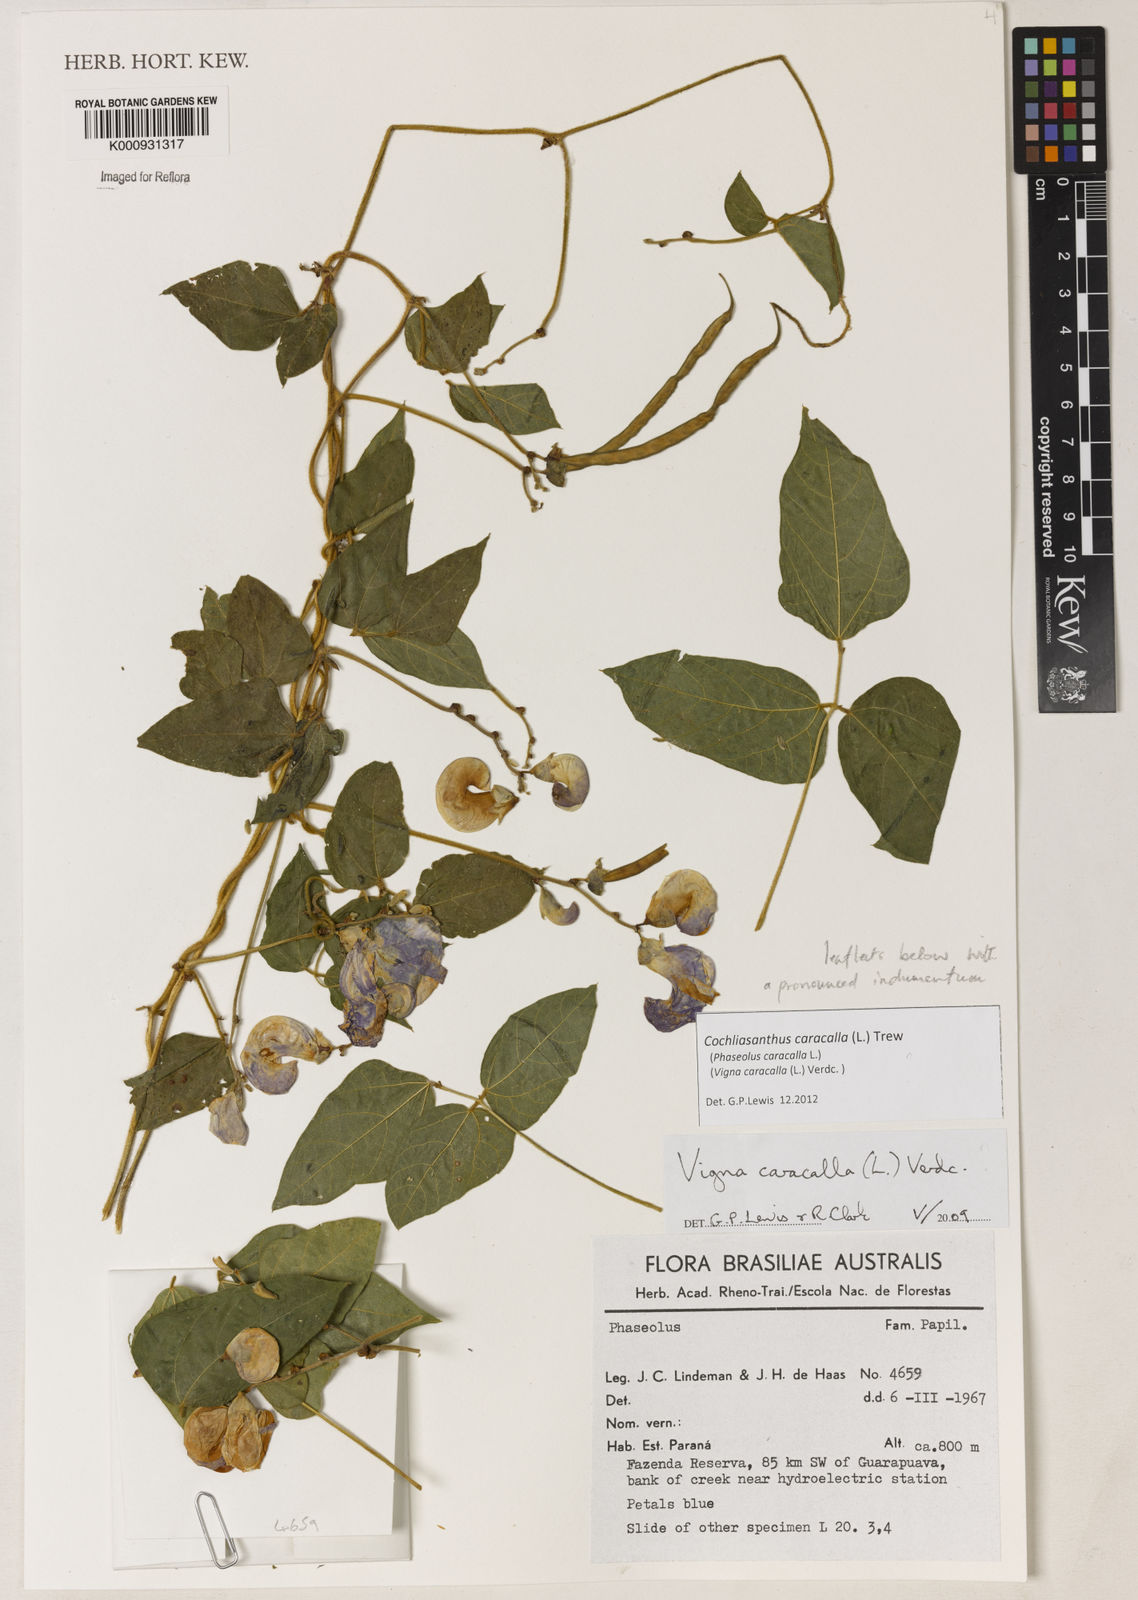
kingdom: Plantae
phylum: Tracheophyta
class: Magnoliopsida
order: Fabales
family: Fabaceae
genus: Cochliasanthus
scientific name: Cochliasanthus caracalla
